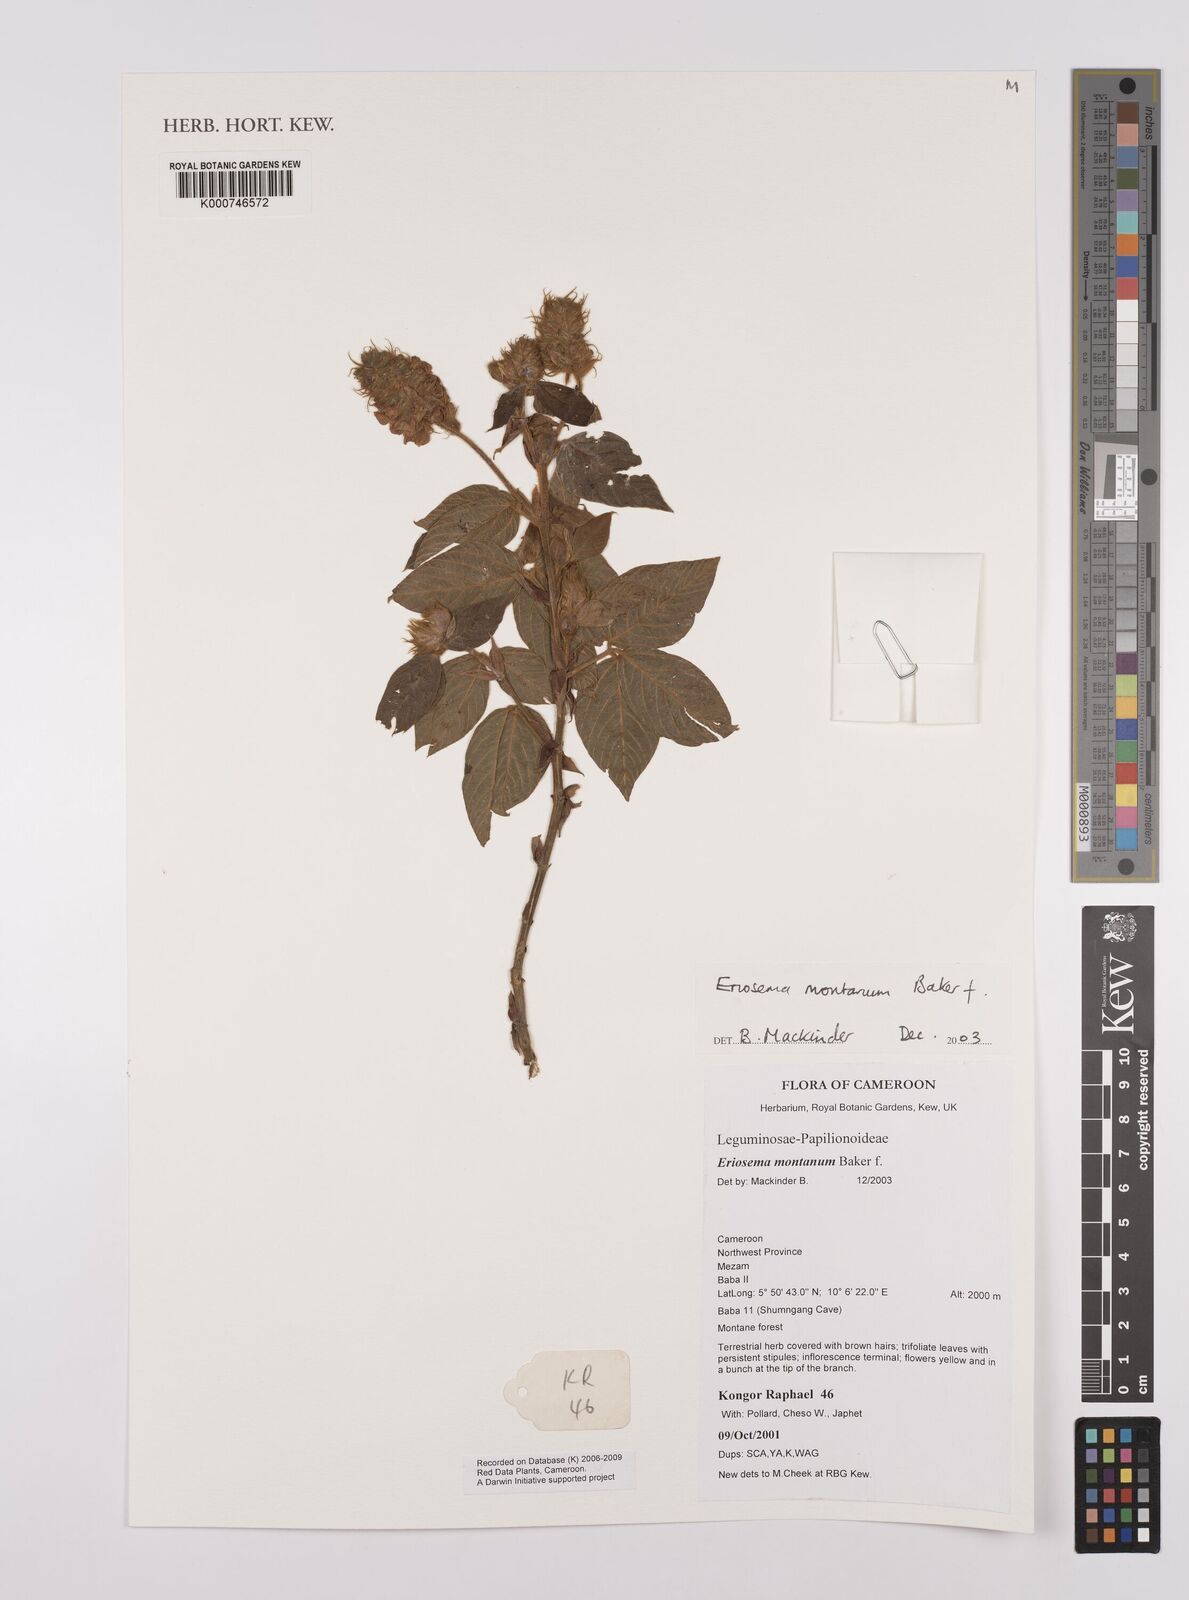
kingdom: Plantae
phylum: Tracheophyta
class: Magnoliopsida
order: Fabales
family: Fabaceae
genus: Eriosema
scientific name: Eriosema montanum
